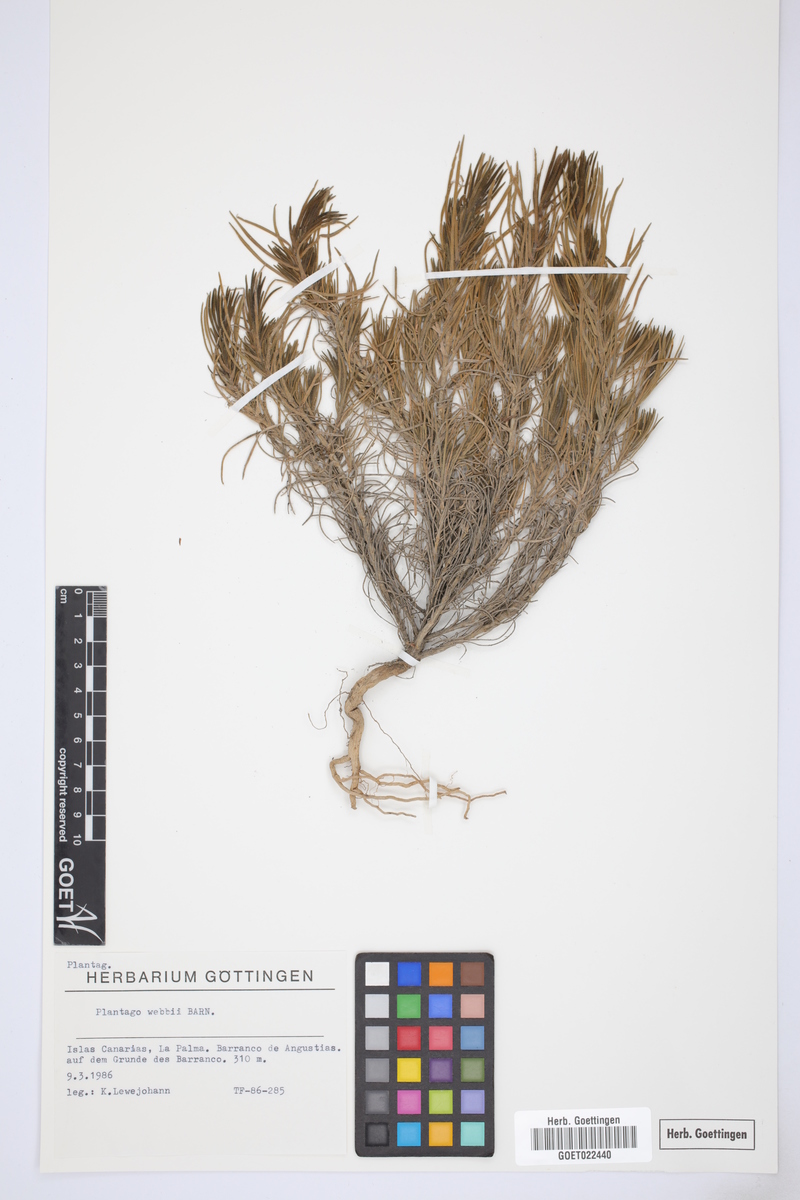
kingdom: Plantae
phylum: Tracheophyta
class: Magnoliopsida
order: Lamiales
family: Plantaginaceae
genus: Plantago
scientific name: Plantago webbii
